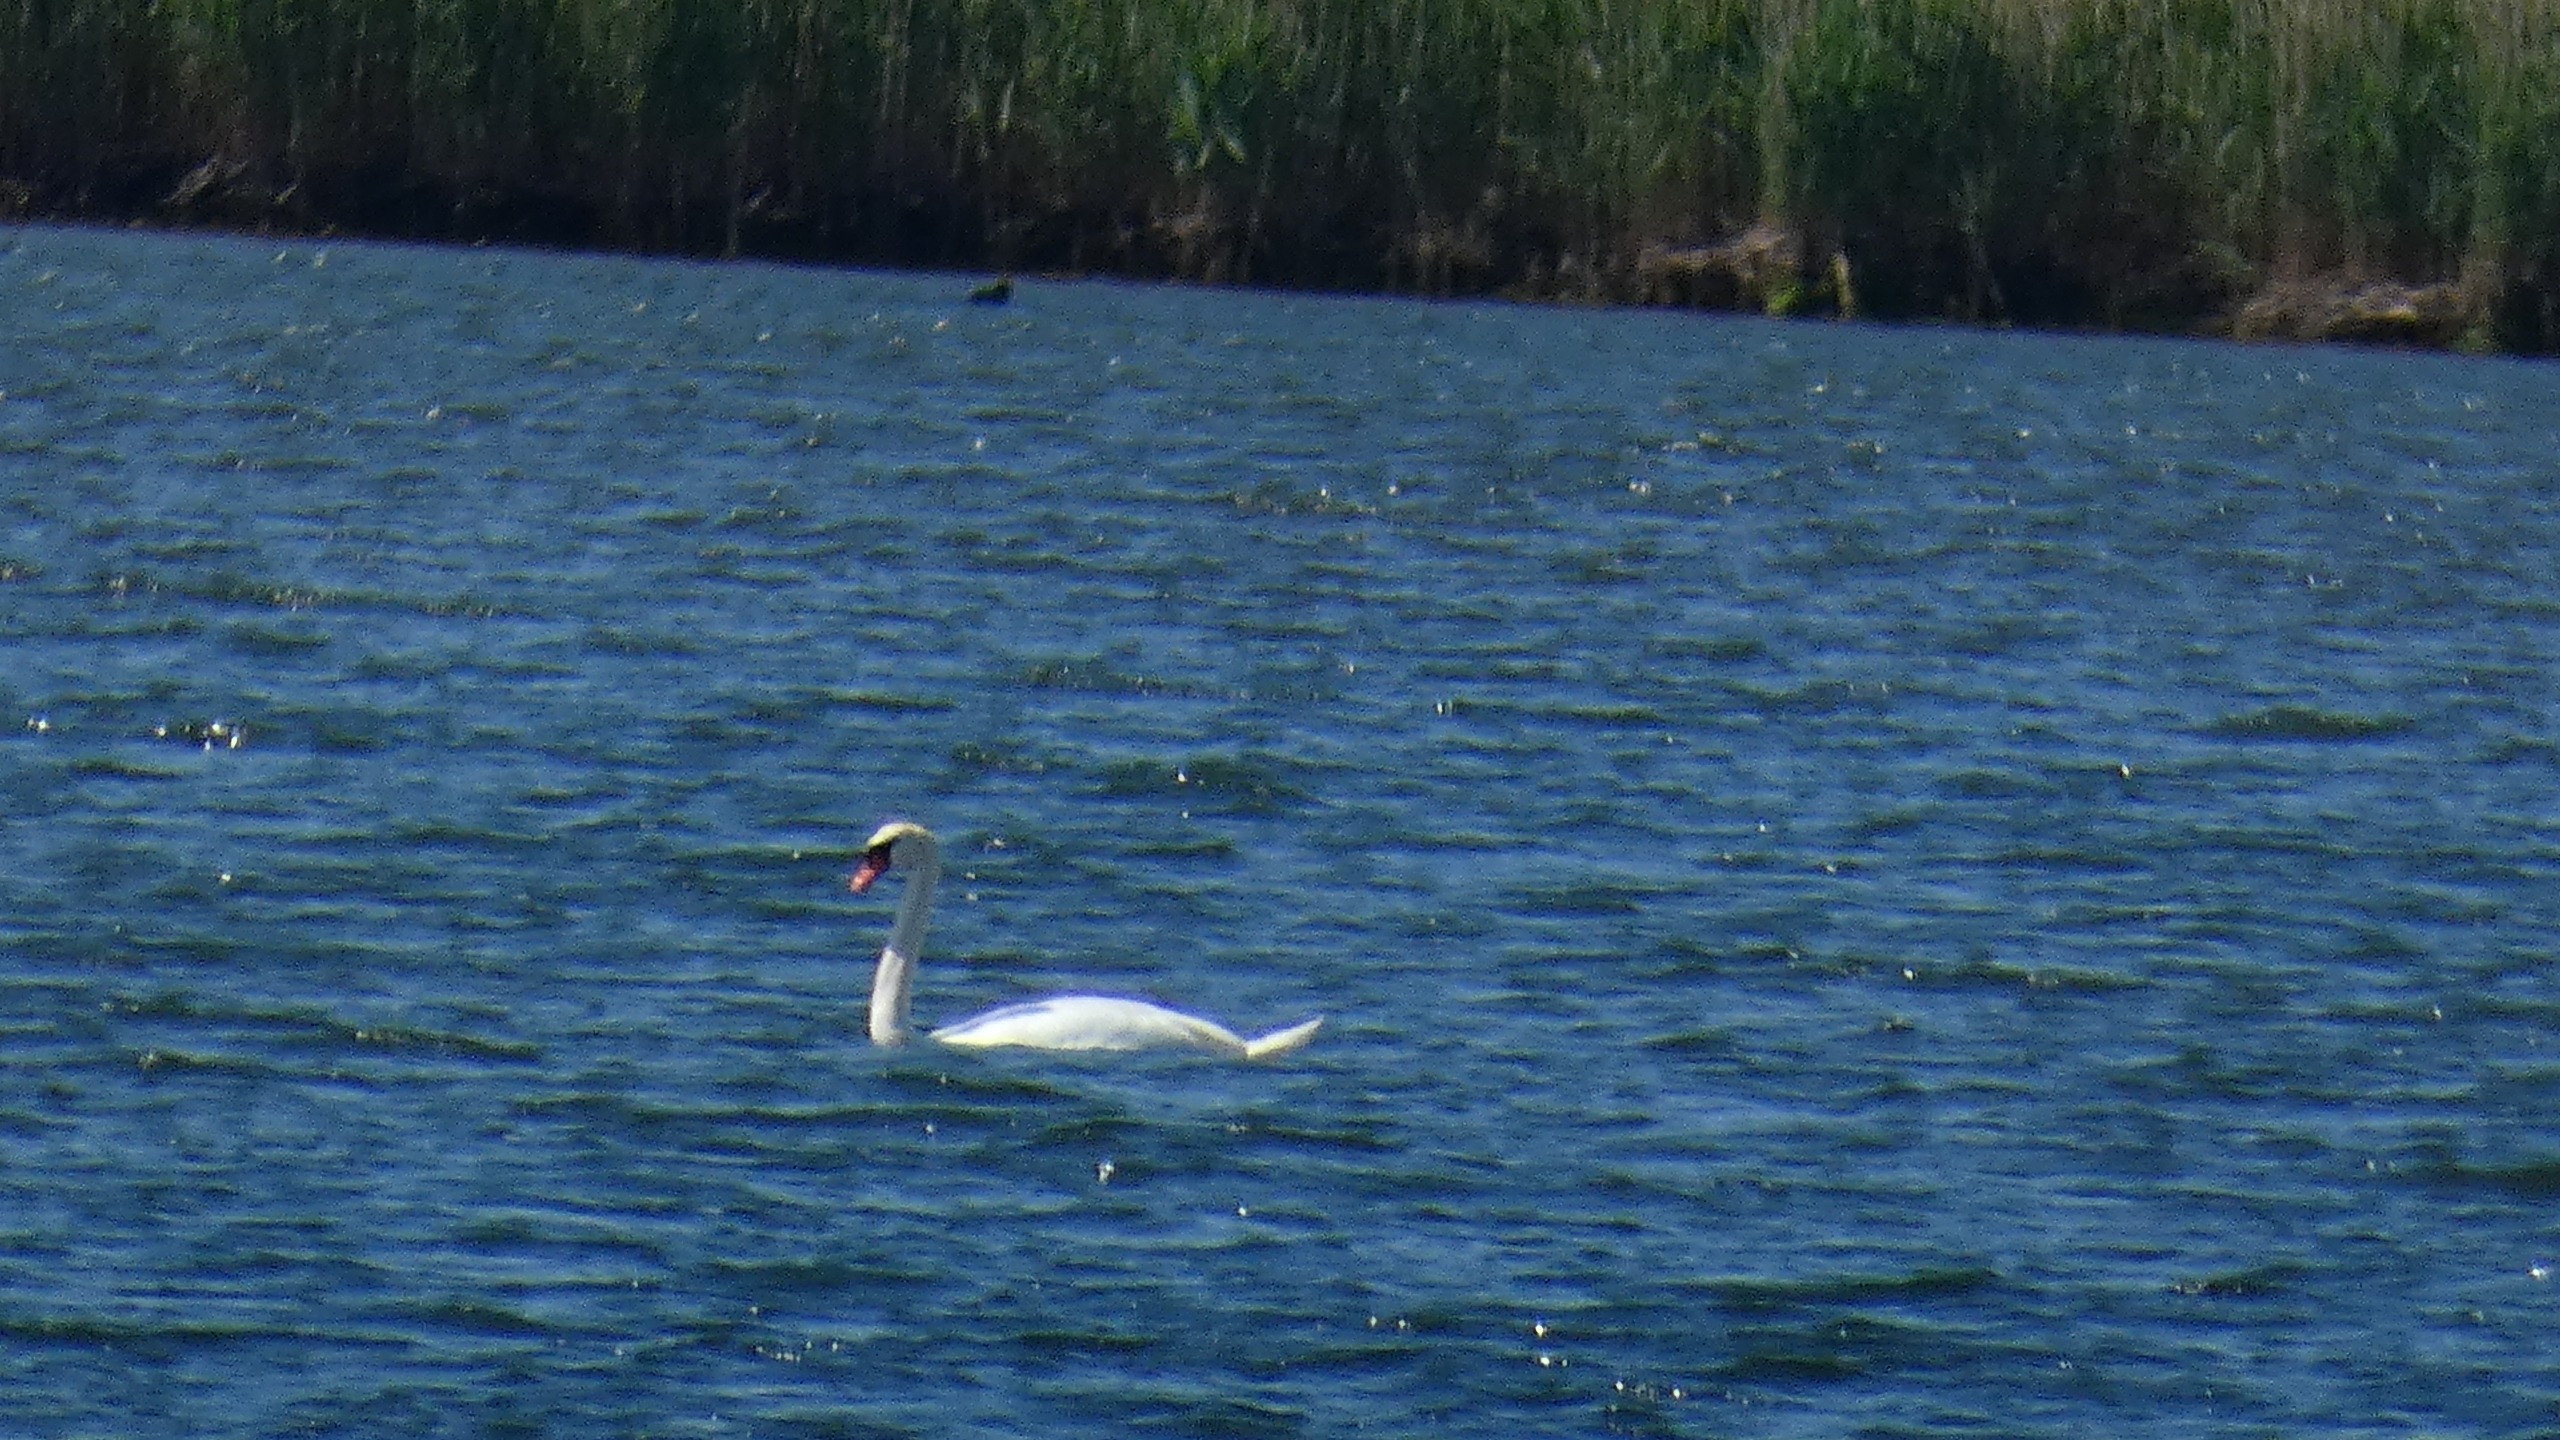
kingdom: Animalia
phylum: Chordata
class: Aves
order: Anseriformes
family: Anatidae
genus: Cygnus
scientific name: Cygnus olor
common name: Knopsvane
